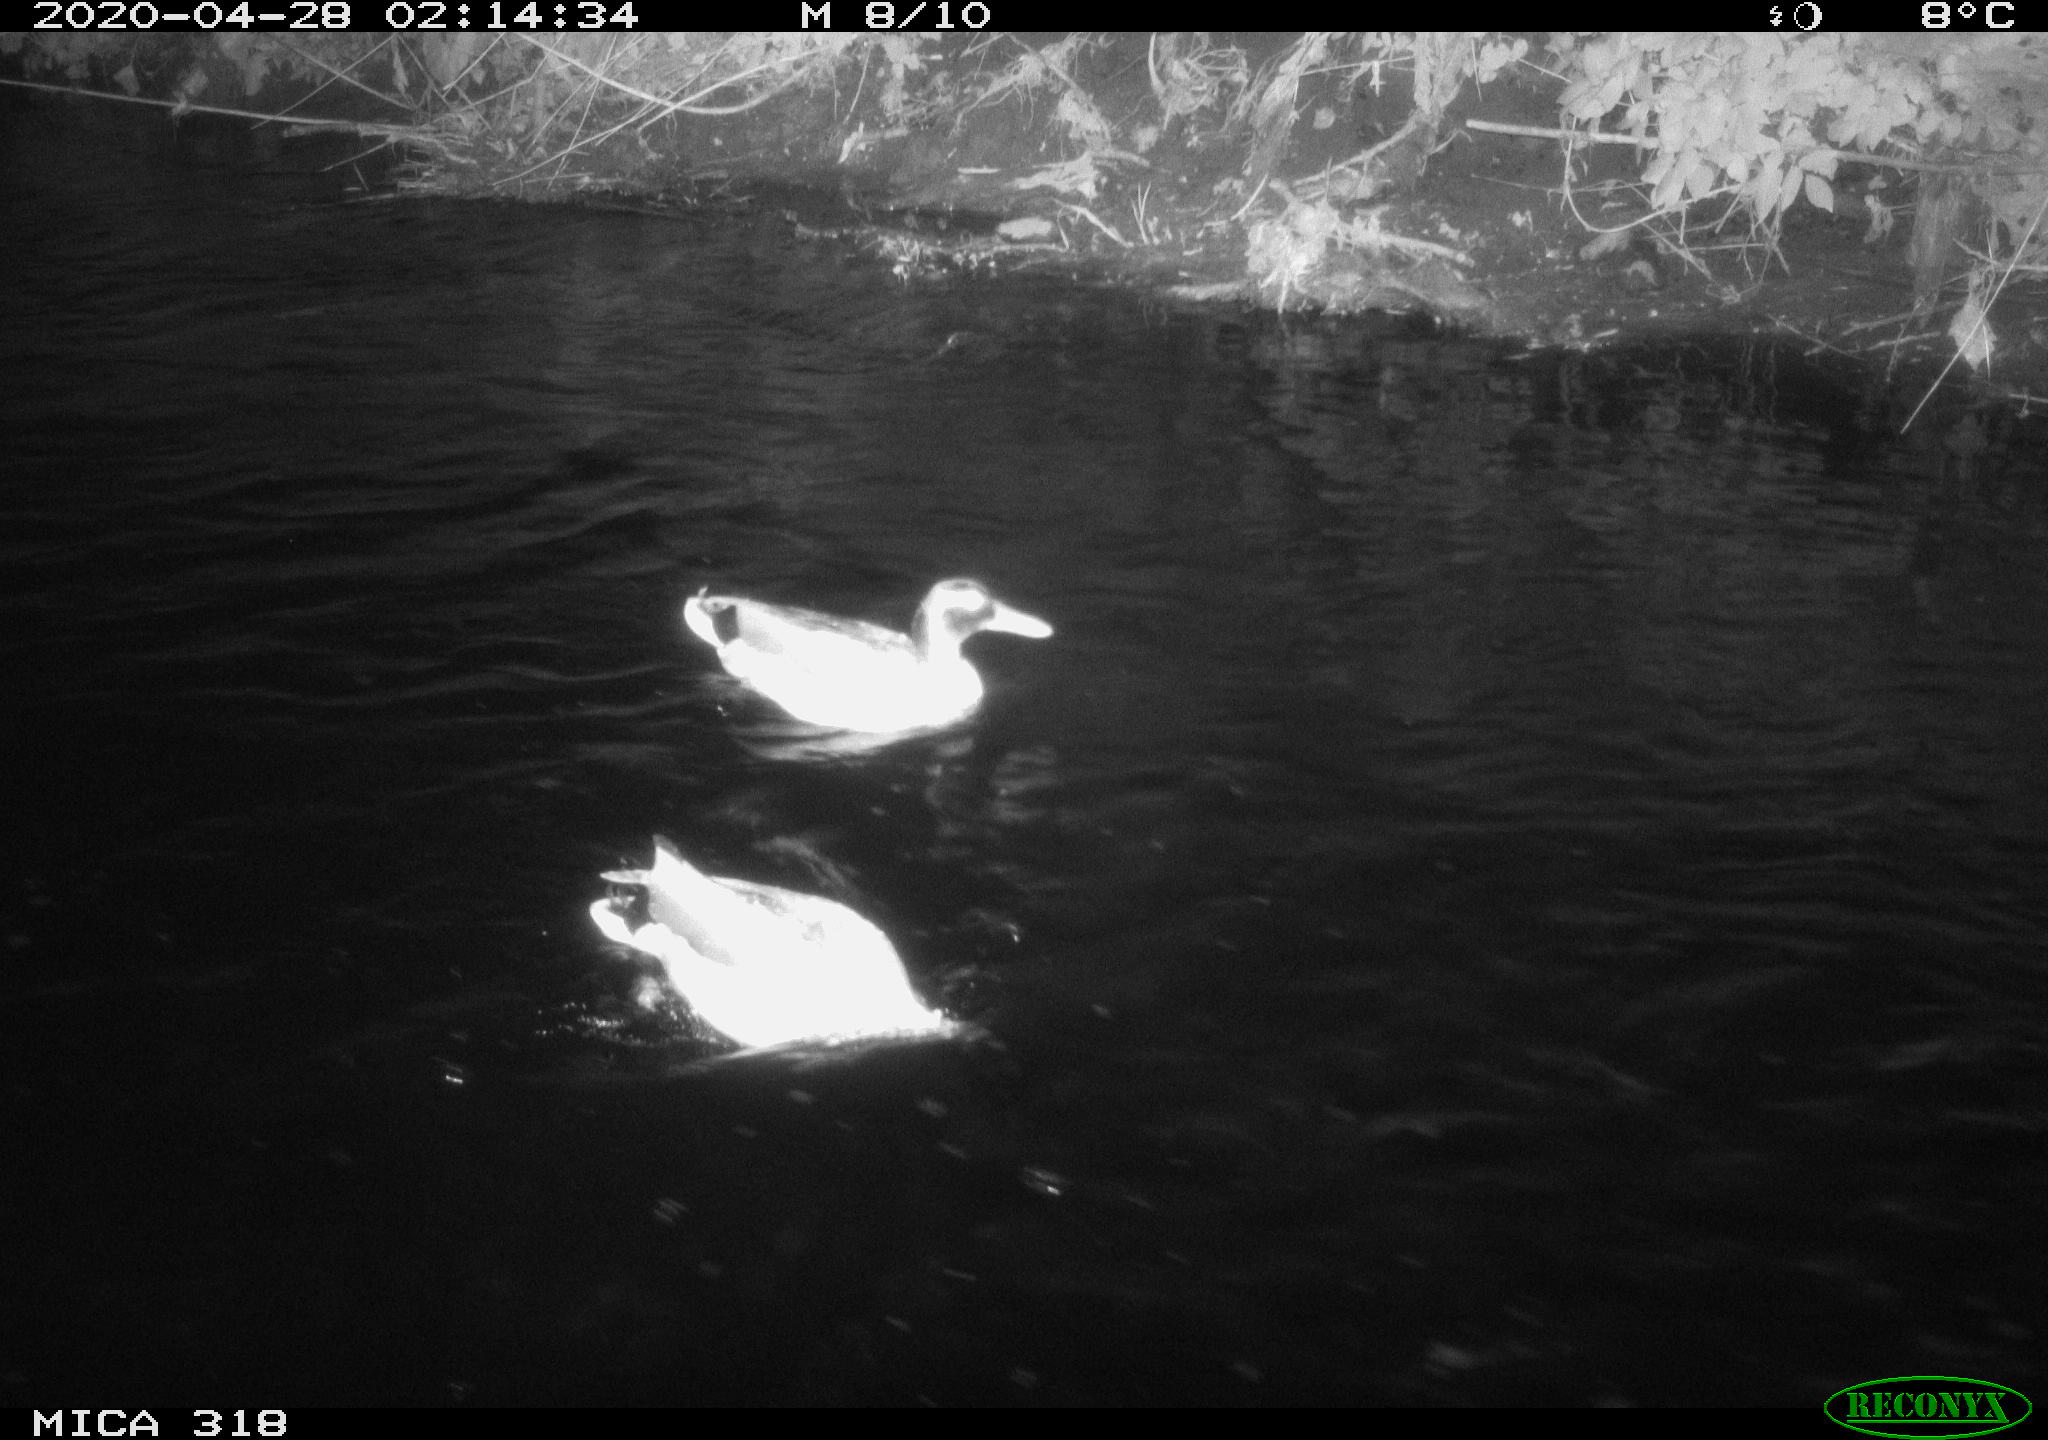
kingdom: Animalia
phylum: Chordata
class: Aves
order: Anseriformes
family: Anatidae
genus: Anas
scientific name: Anas platyrhynchos
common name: Mallard
